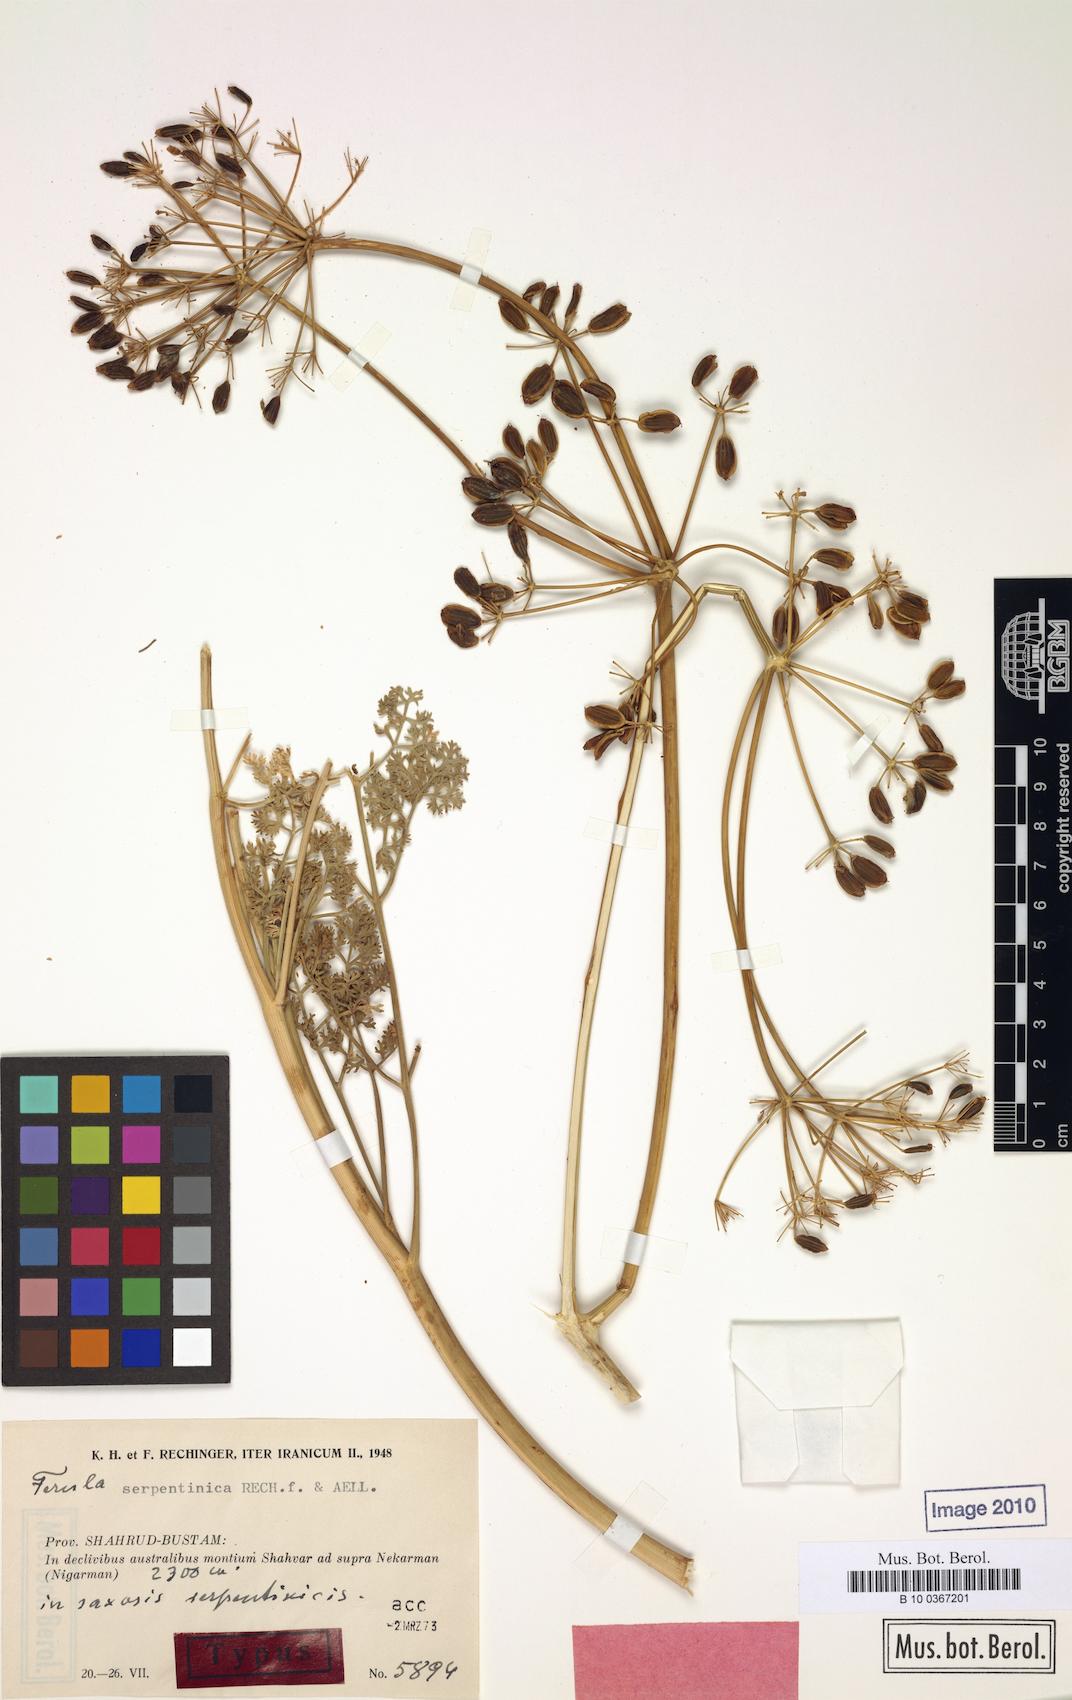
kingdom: Plantae
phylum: Tracheophyta
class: Magnoliopsida
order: Apiales
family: Apiaceae
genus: Ferula
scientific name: Ferula serpentinica
